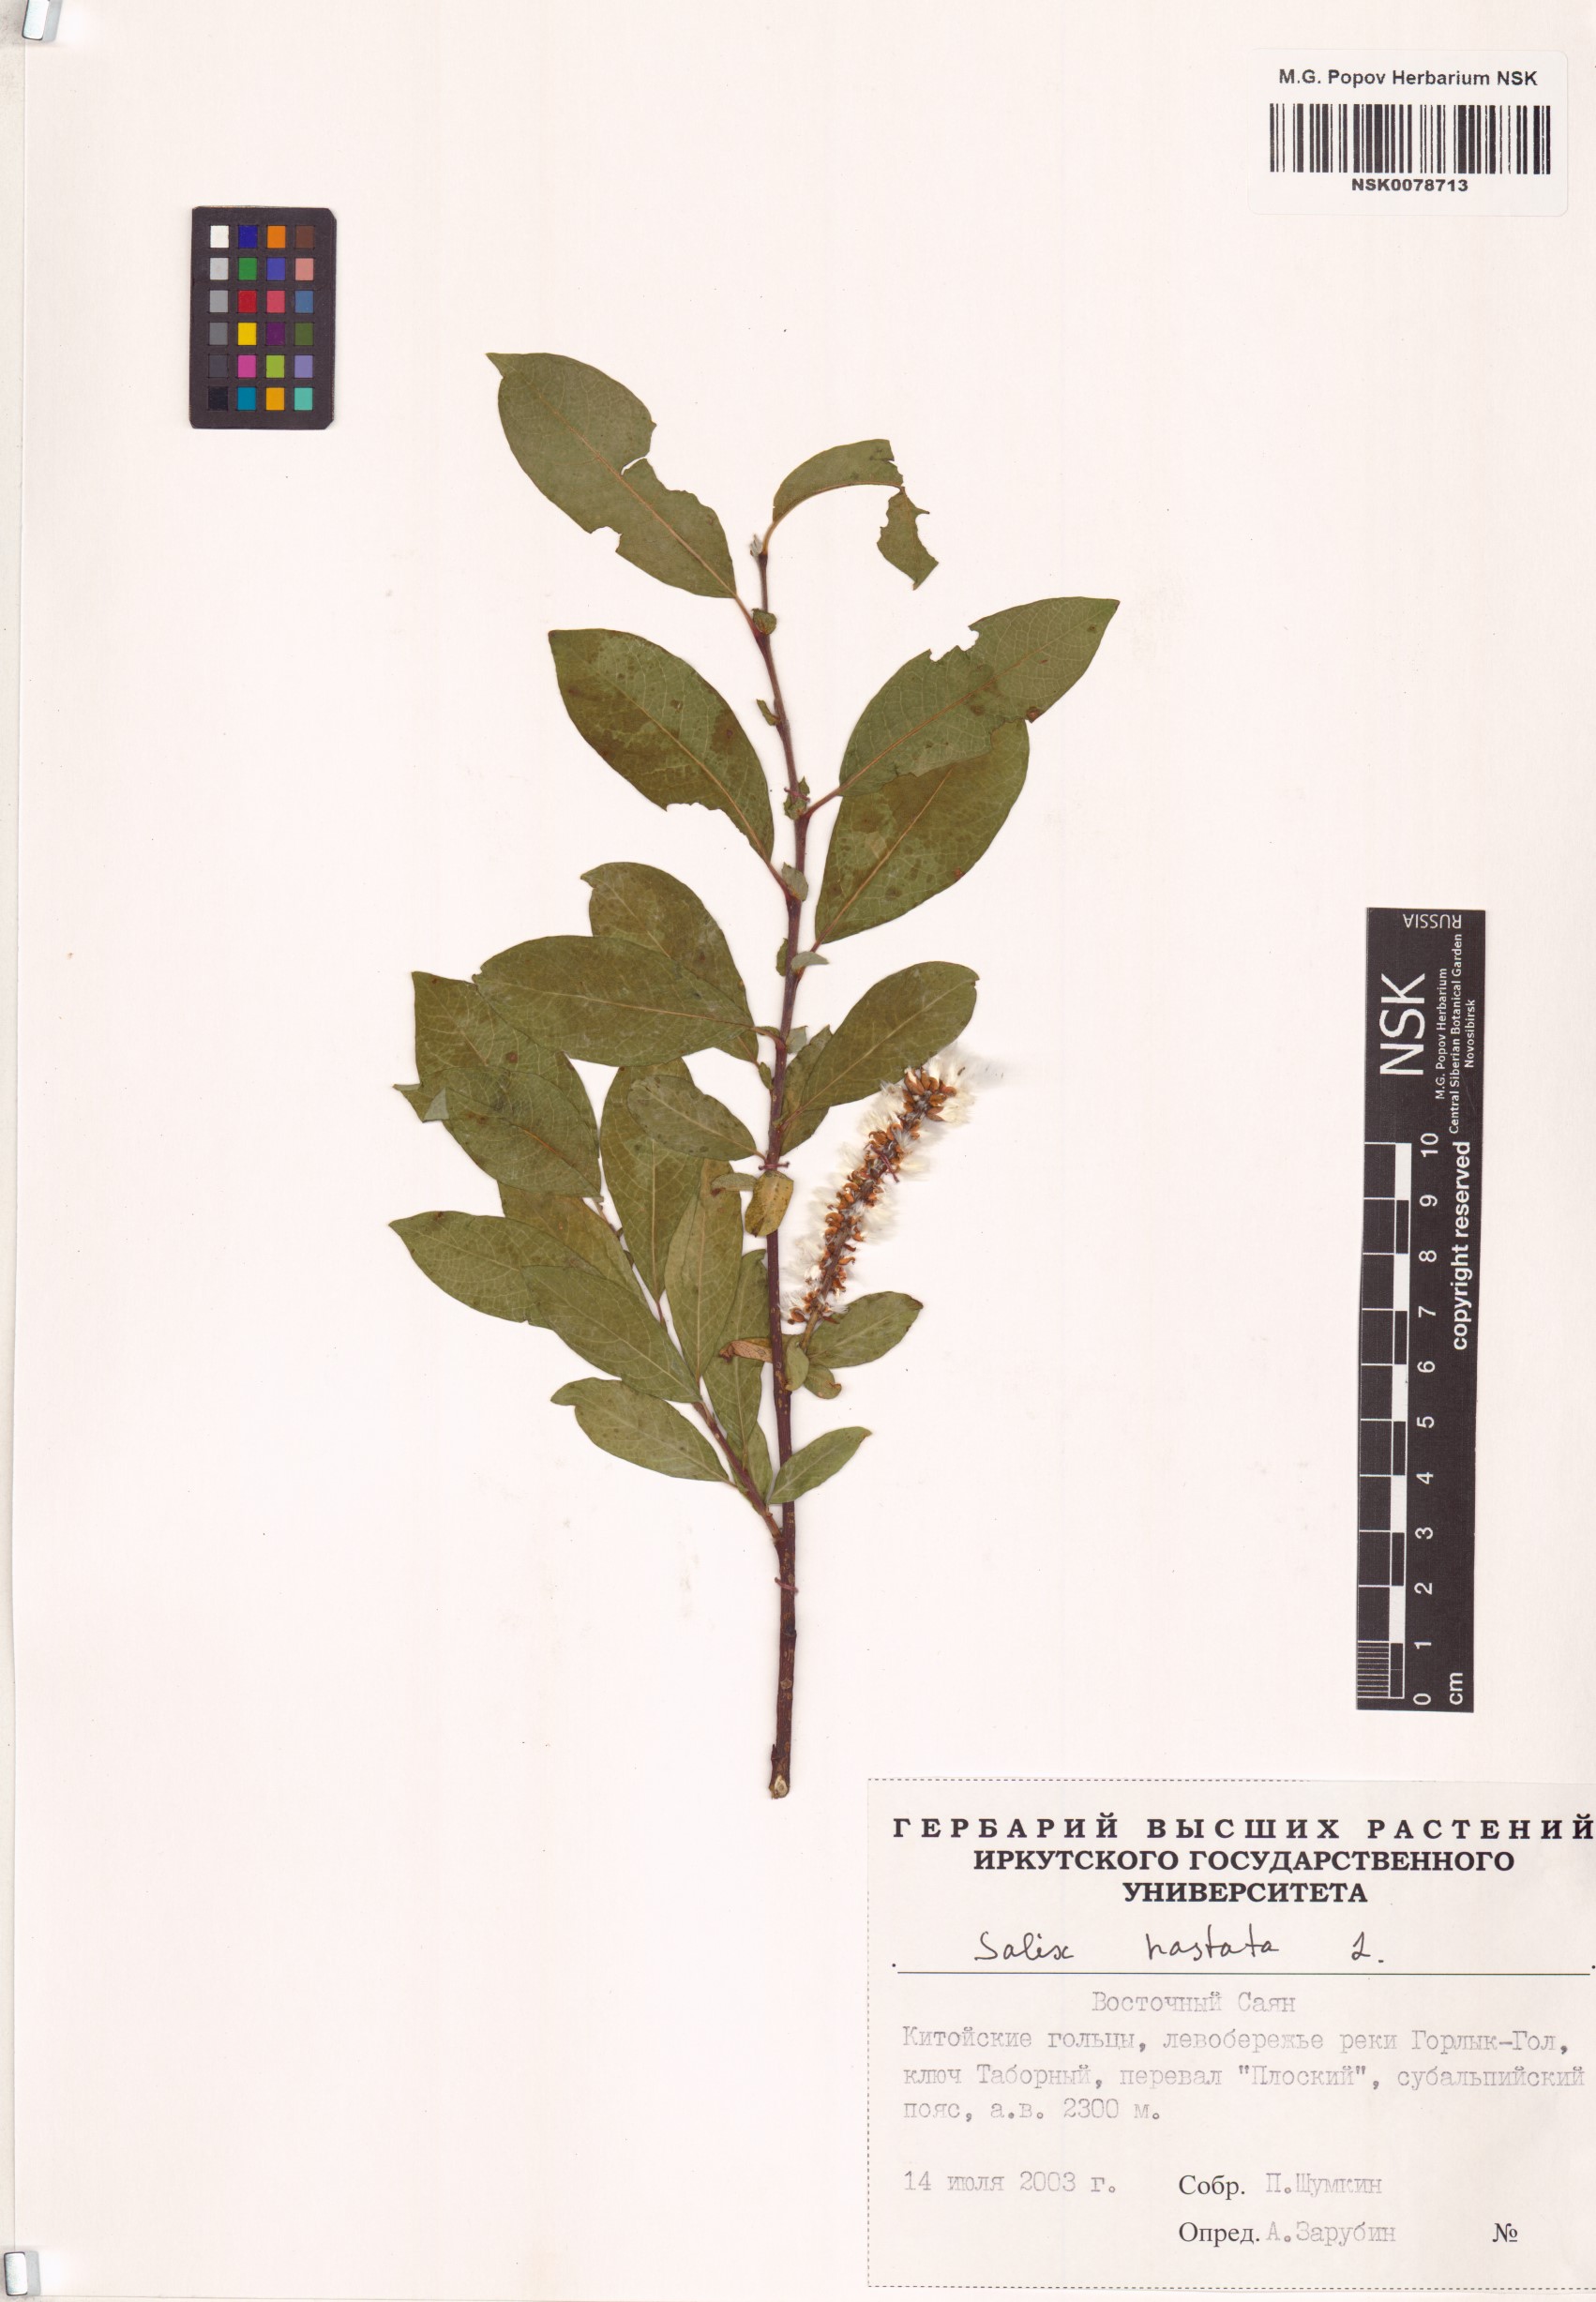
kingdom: Plantae
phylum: Tracheophyta
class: Magnoliopsida
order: Malpighiales
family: Salicaceae
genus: Salix
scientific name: Salix hastata
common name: Halberd willow
